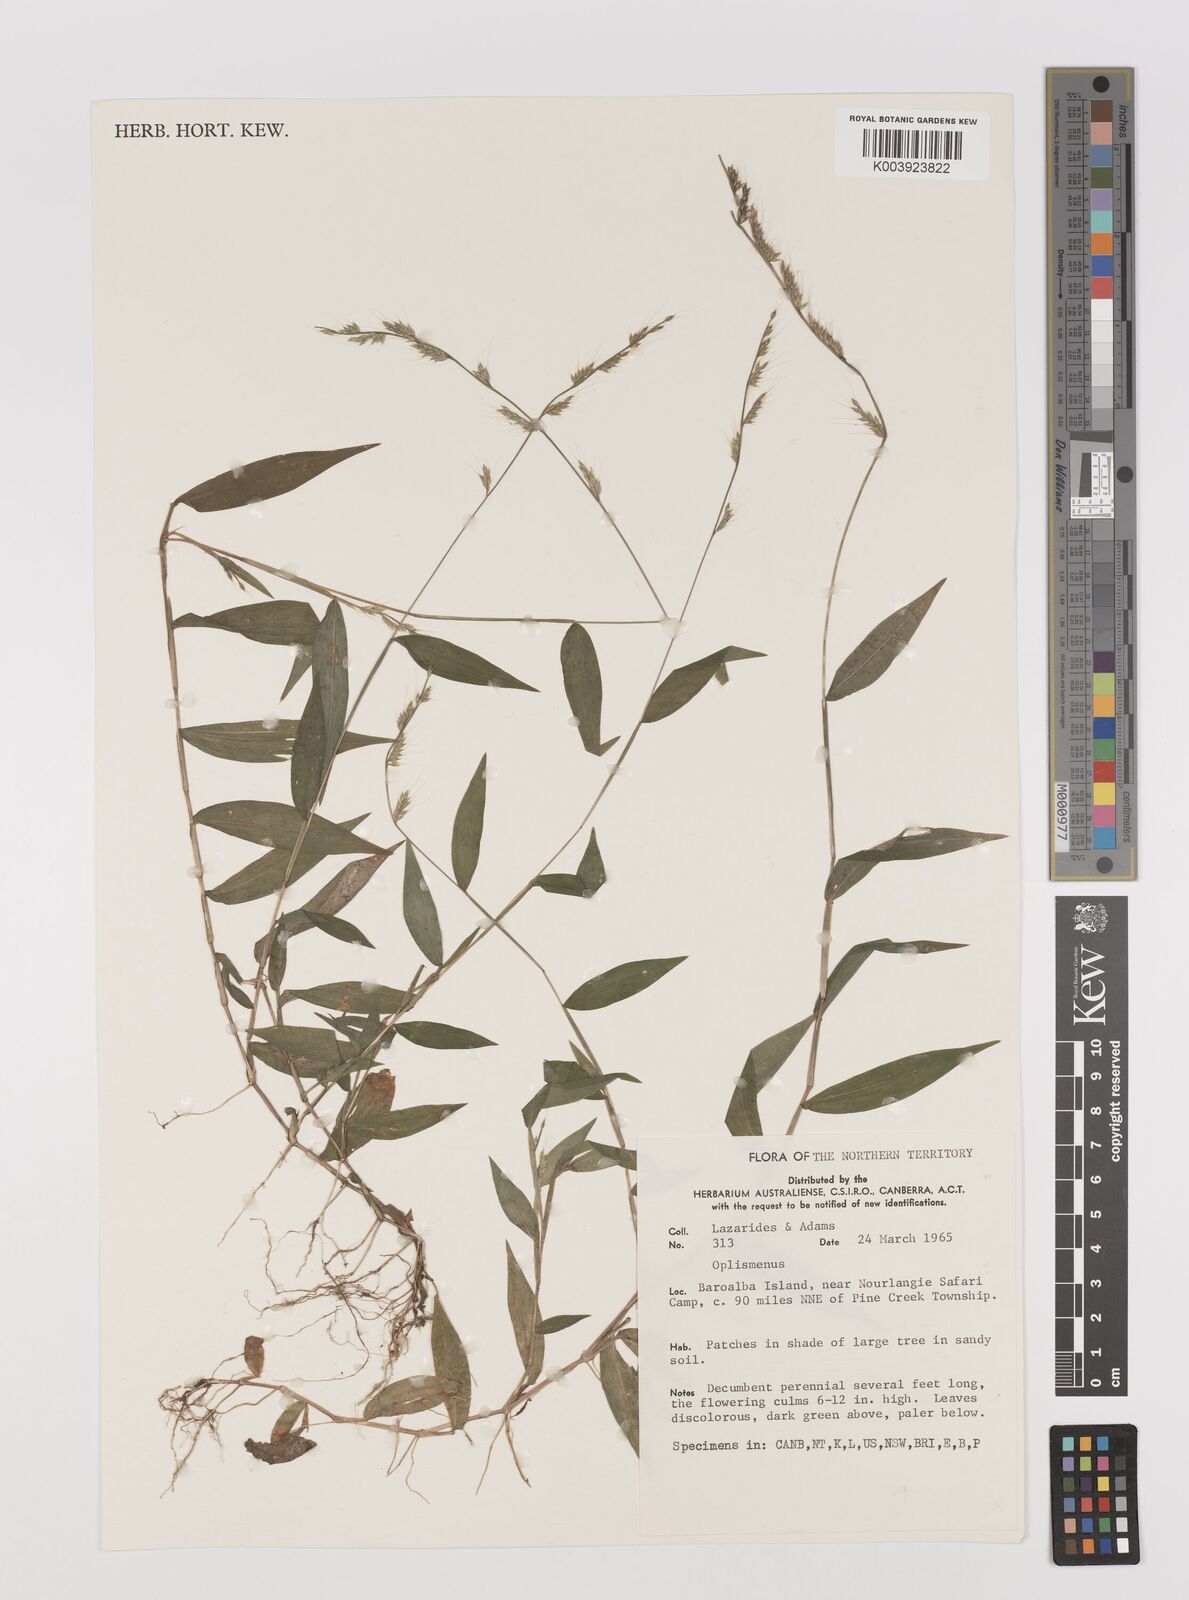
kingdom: Plantae
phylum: Tracheophyta
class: Liliopsida
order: Poales
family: Poaceae
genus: Oplismenus
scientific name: Oplismenus burmanni
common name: Burmann's basketgrass
